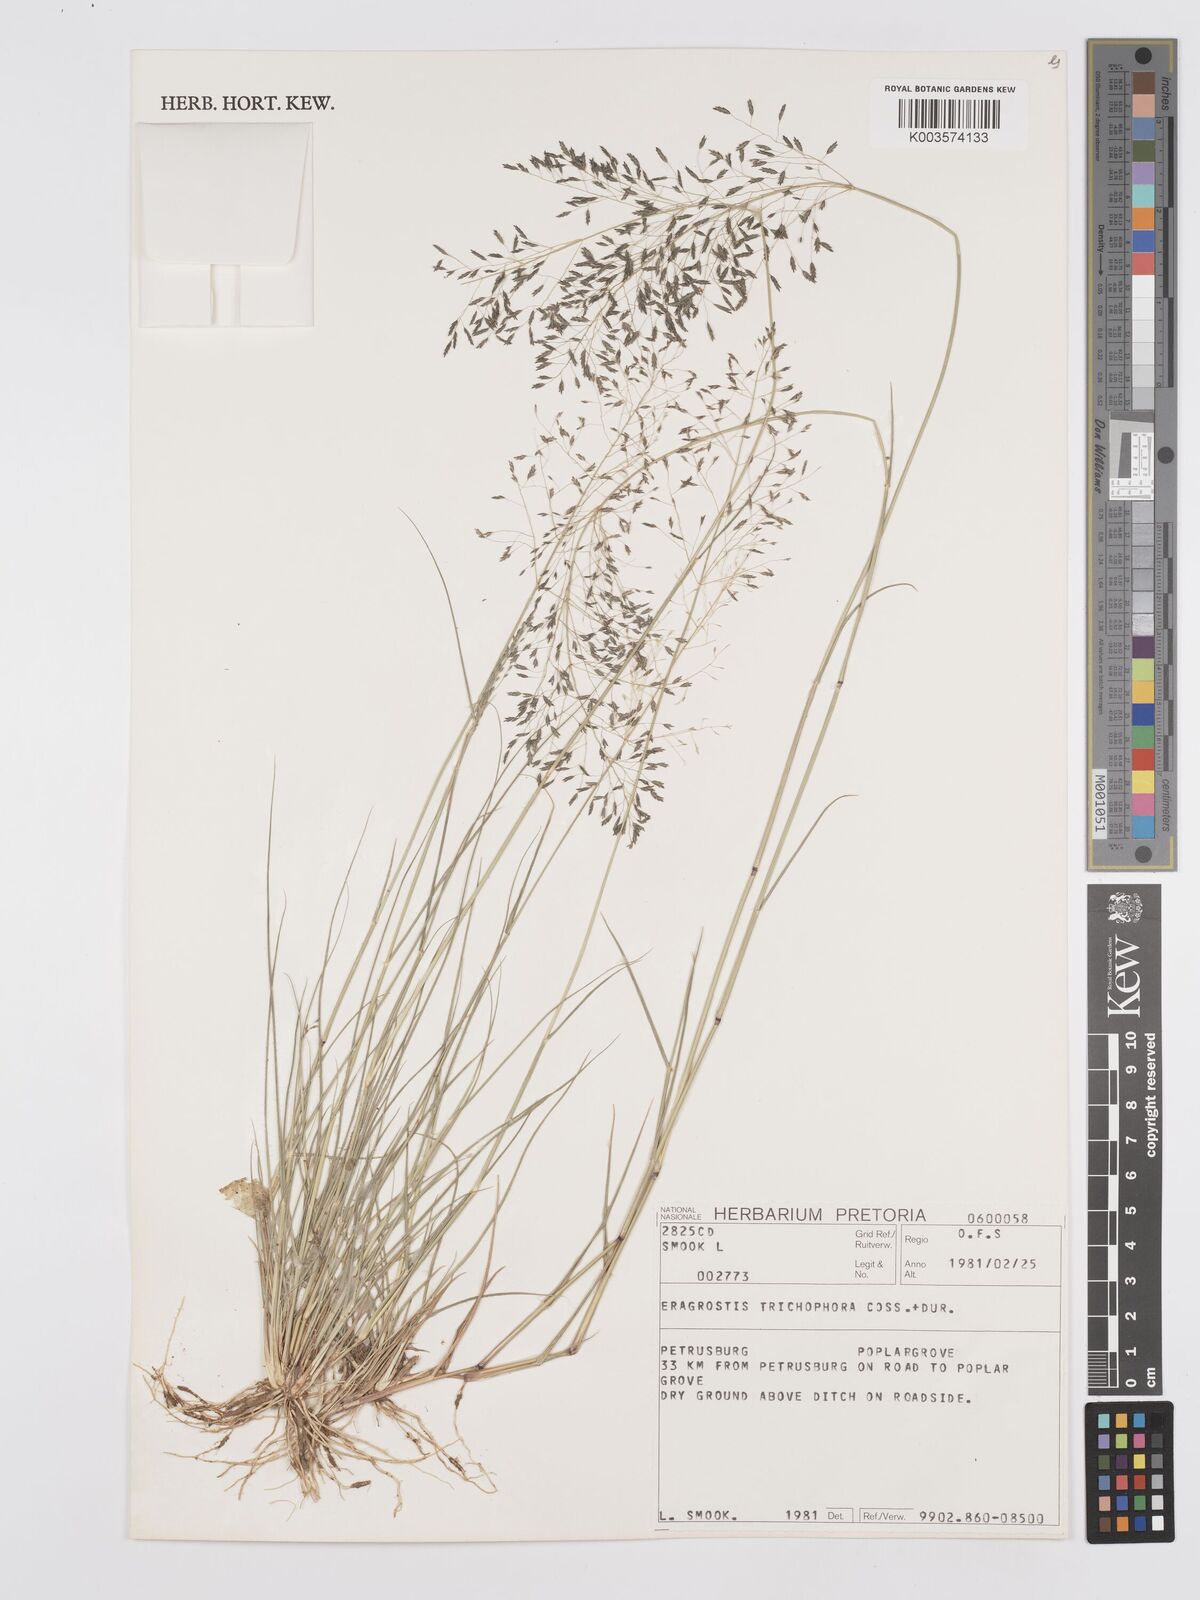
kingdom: Plantae
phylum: Tracheophyta
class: Liliopsida
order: Poales
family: Poaceae
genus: Eragrostis
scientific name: Eragrostis cylindriflora
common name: Cylinderflower lovegrass
